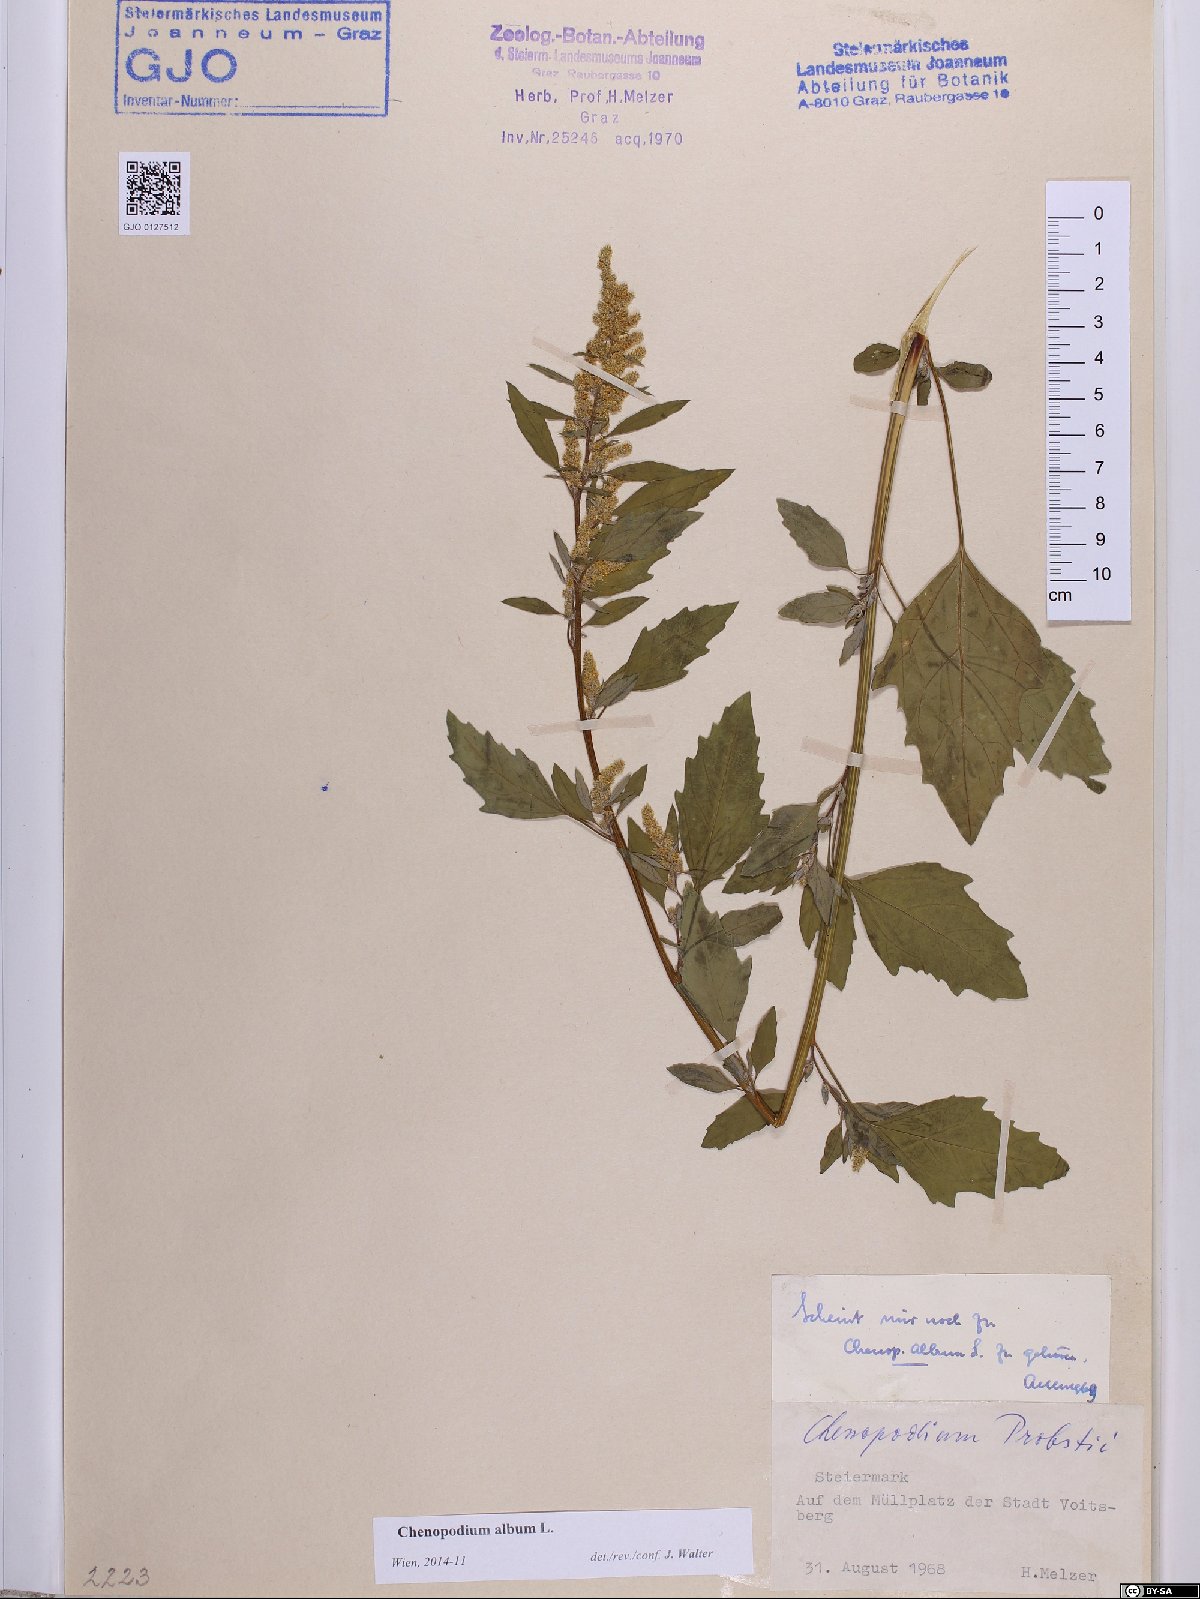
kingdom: Plantae
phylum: Tracheophyta
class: Magnoliopsida
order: Caryophyllales
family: Amaranthaceae
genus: Chenopodium
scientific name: Chenopodium album
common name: Fat-hen
